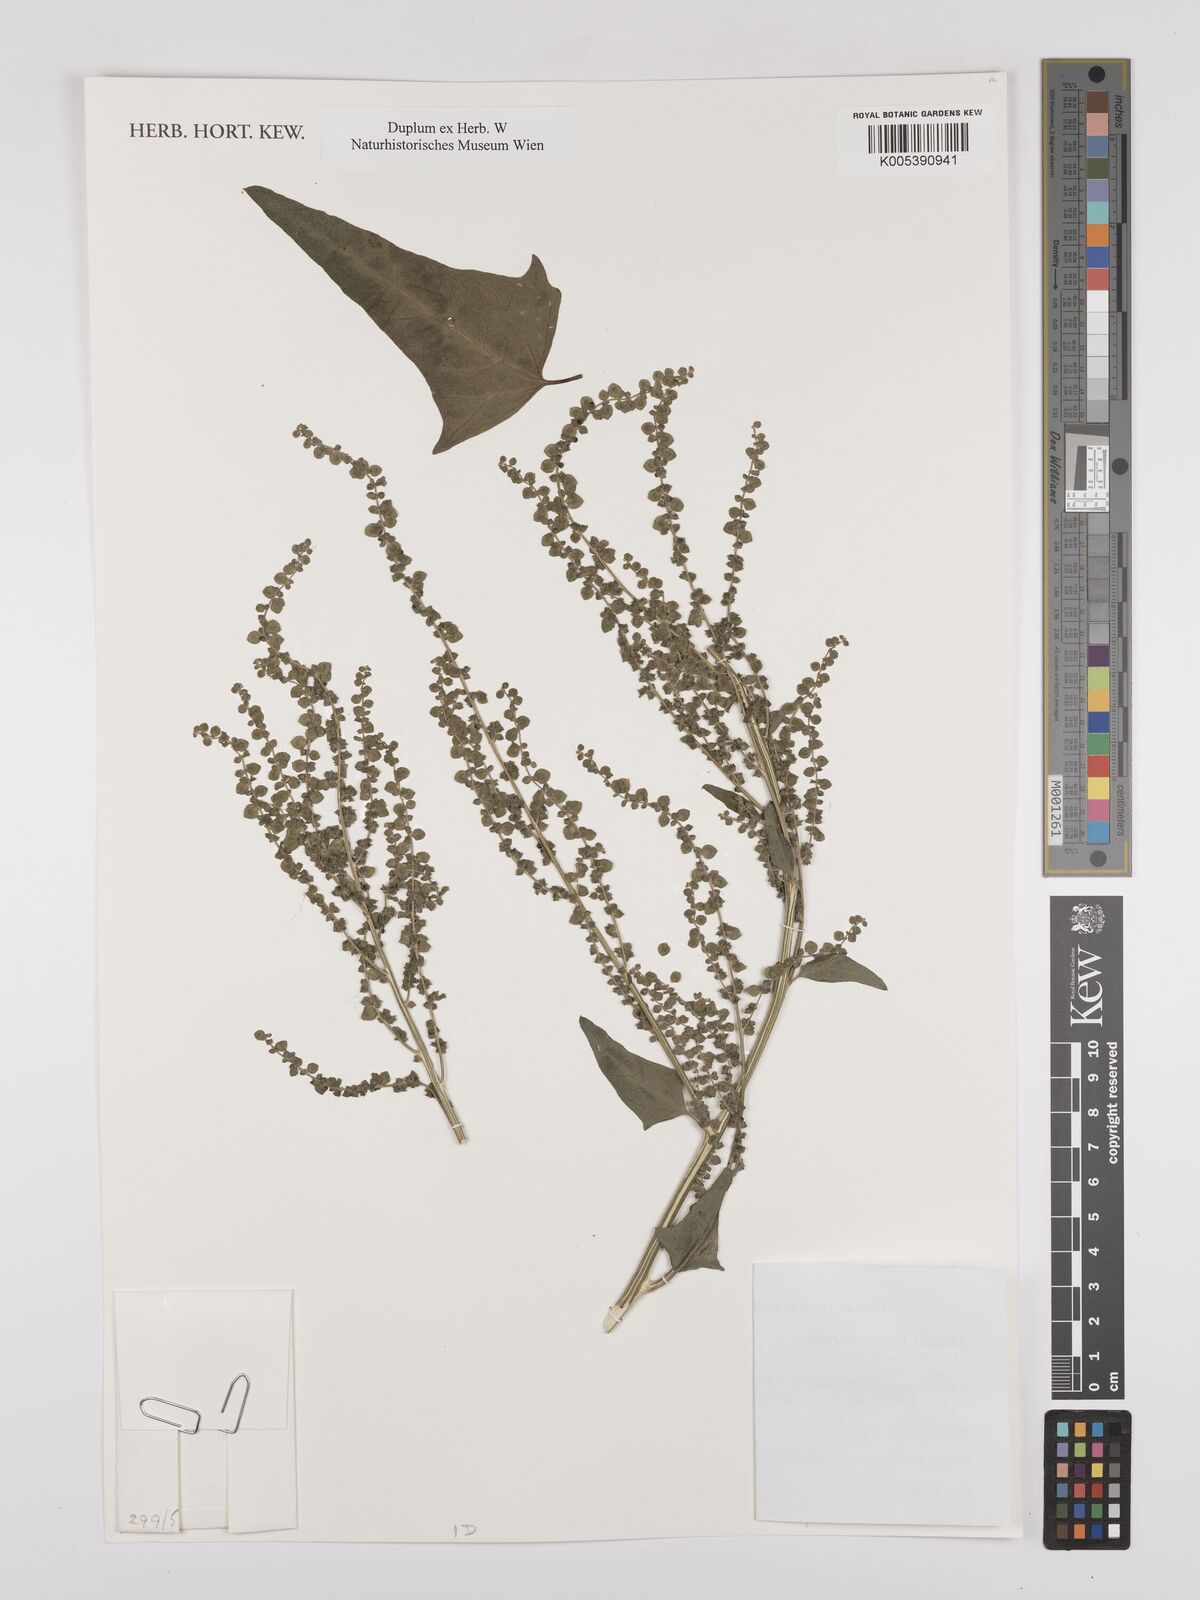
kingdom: Plantae
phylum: Tracheophyta
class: Magnoliopsida
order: Caryophyllales
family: Amaranthaceae
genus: Atriplex
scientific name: Atriplex micrantha
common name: Twoscale saltbush
